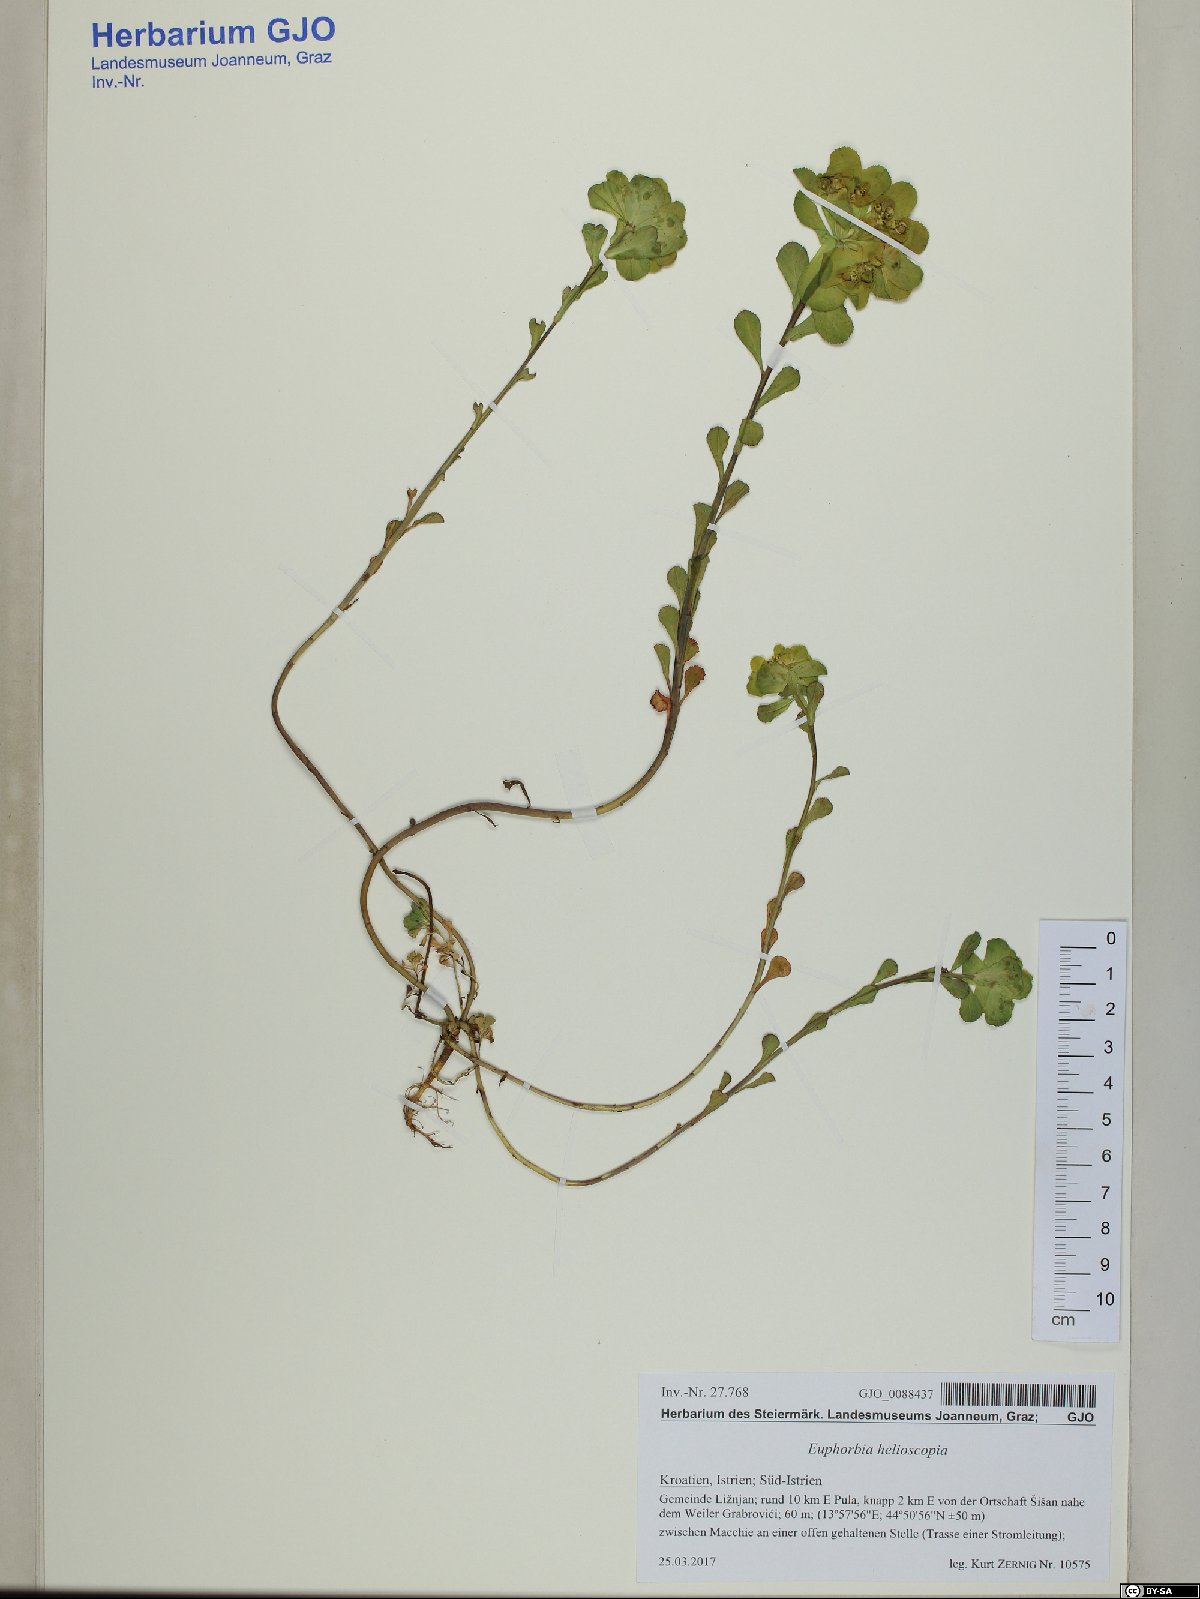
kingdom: Plantae
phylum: Tracheophyta
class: Magnoliopsida
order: Malpighiales
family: Euphorbiaceae
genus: Euphorbia
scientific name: Euphorbia helioscopia
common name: Sun spurge
